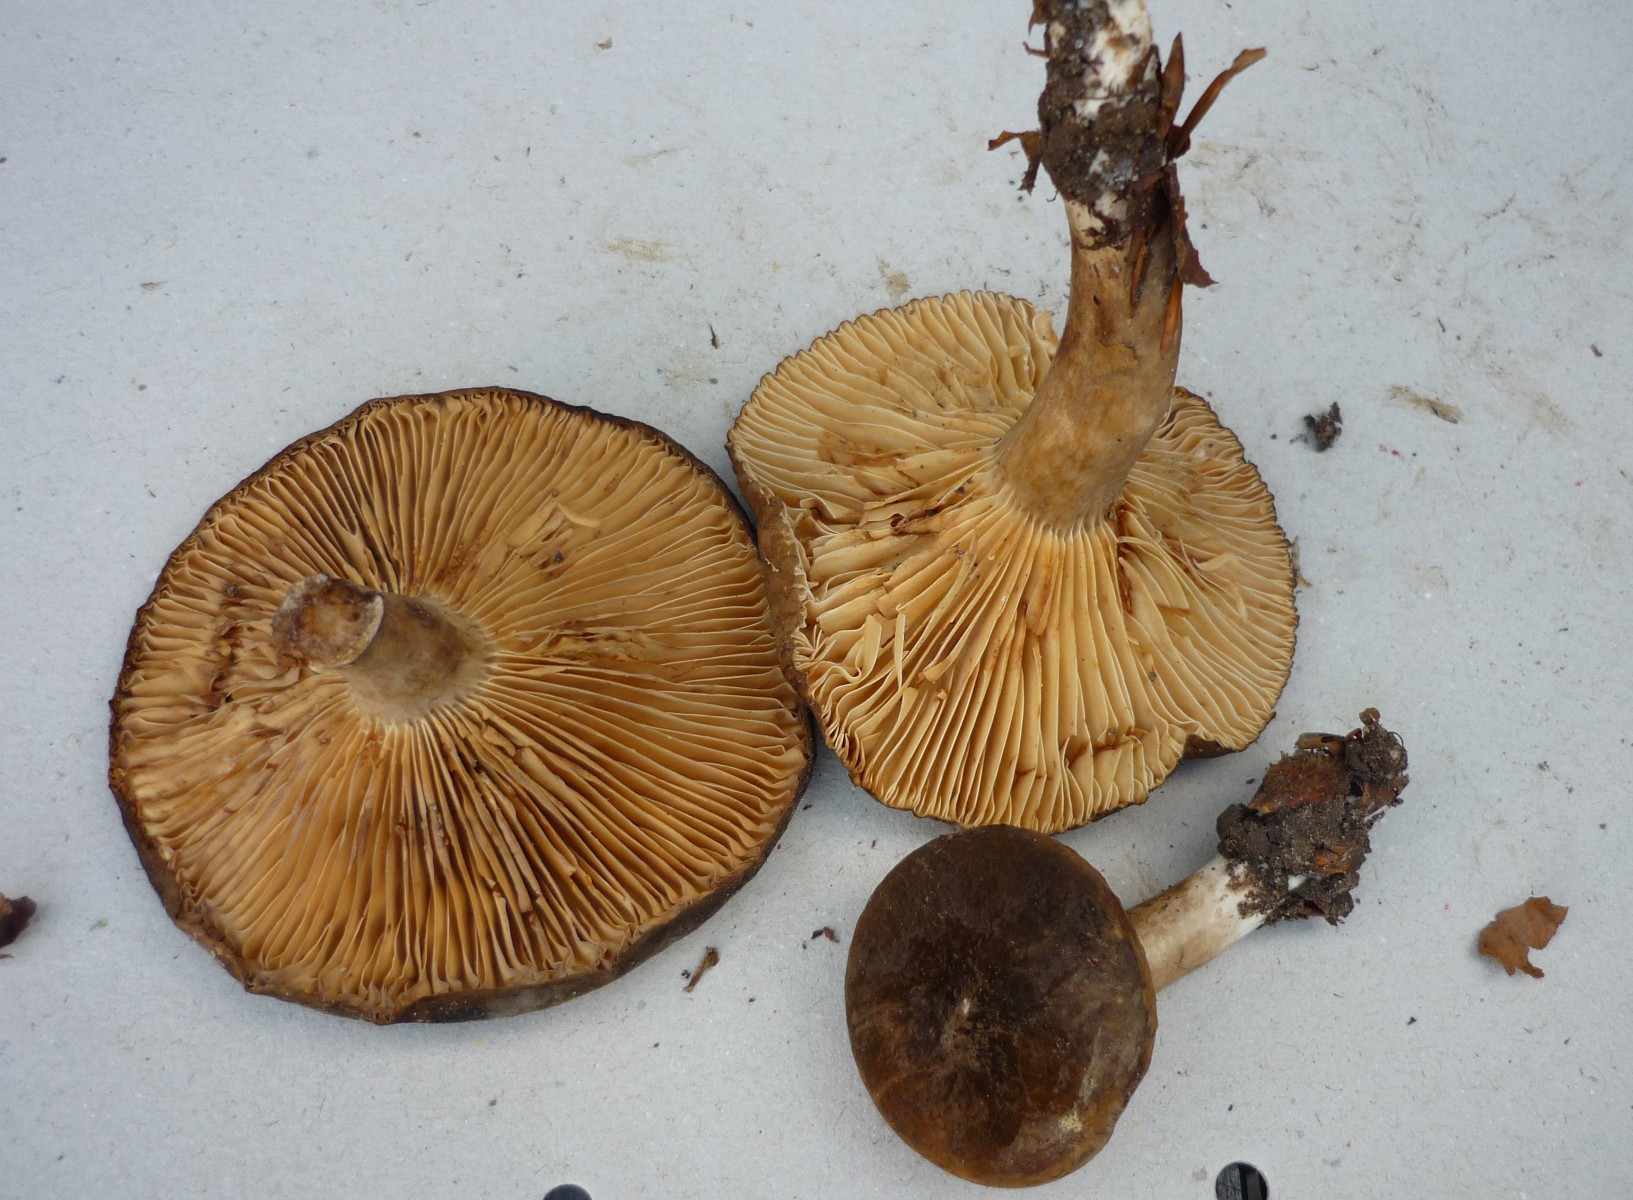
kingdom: Fungi
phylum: Basidiomycota
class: Agaricomycetes
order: Russulales
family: Russulaceae
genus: Lactarius
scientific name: Lactarius romagnesii
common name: fjernbladet mælkehat
